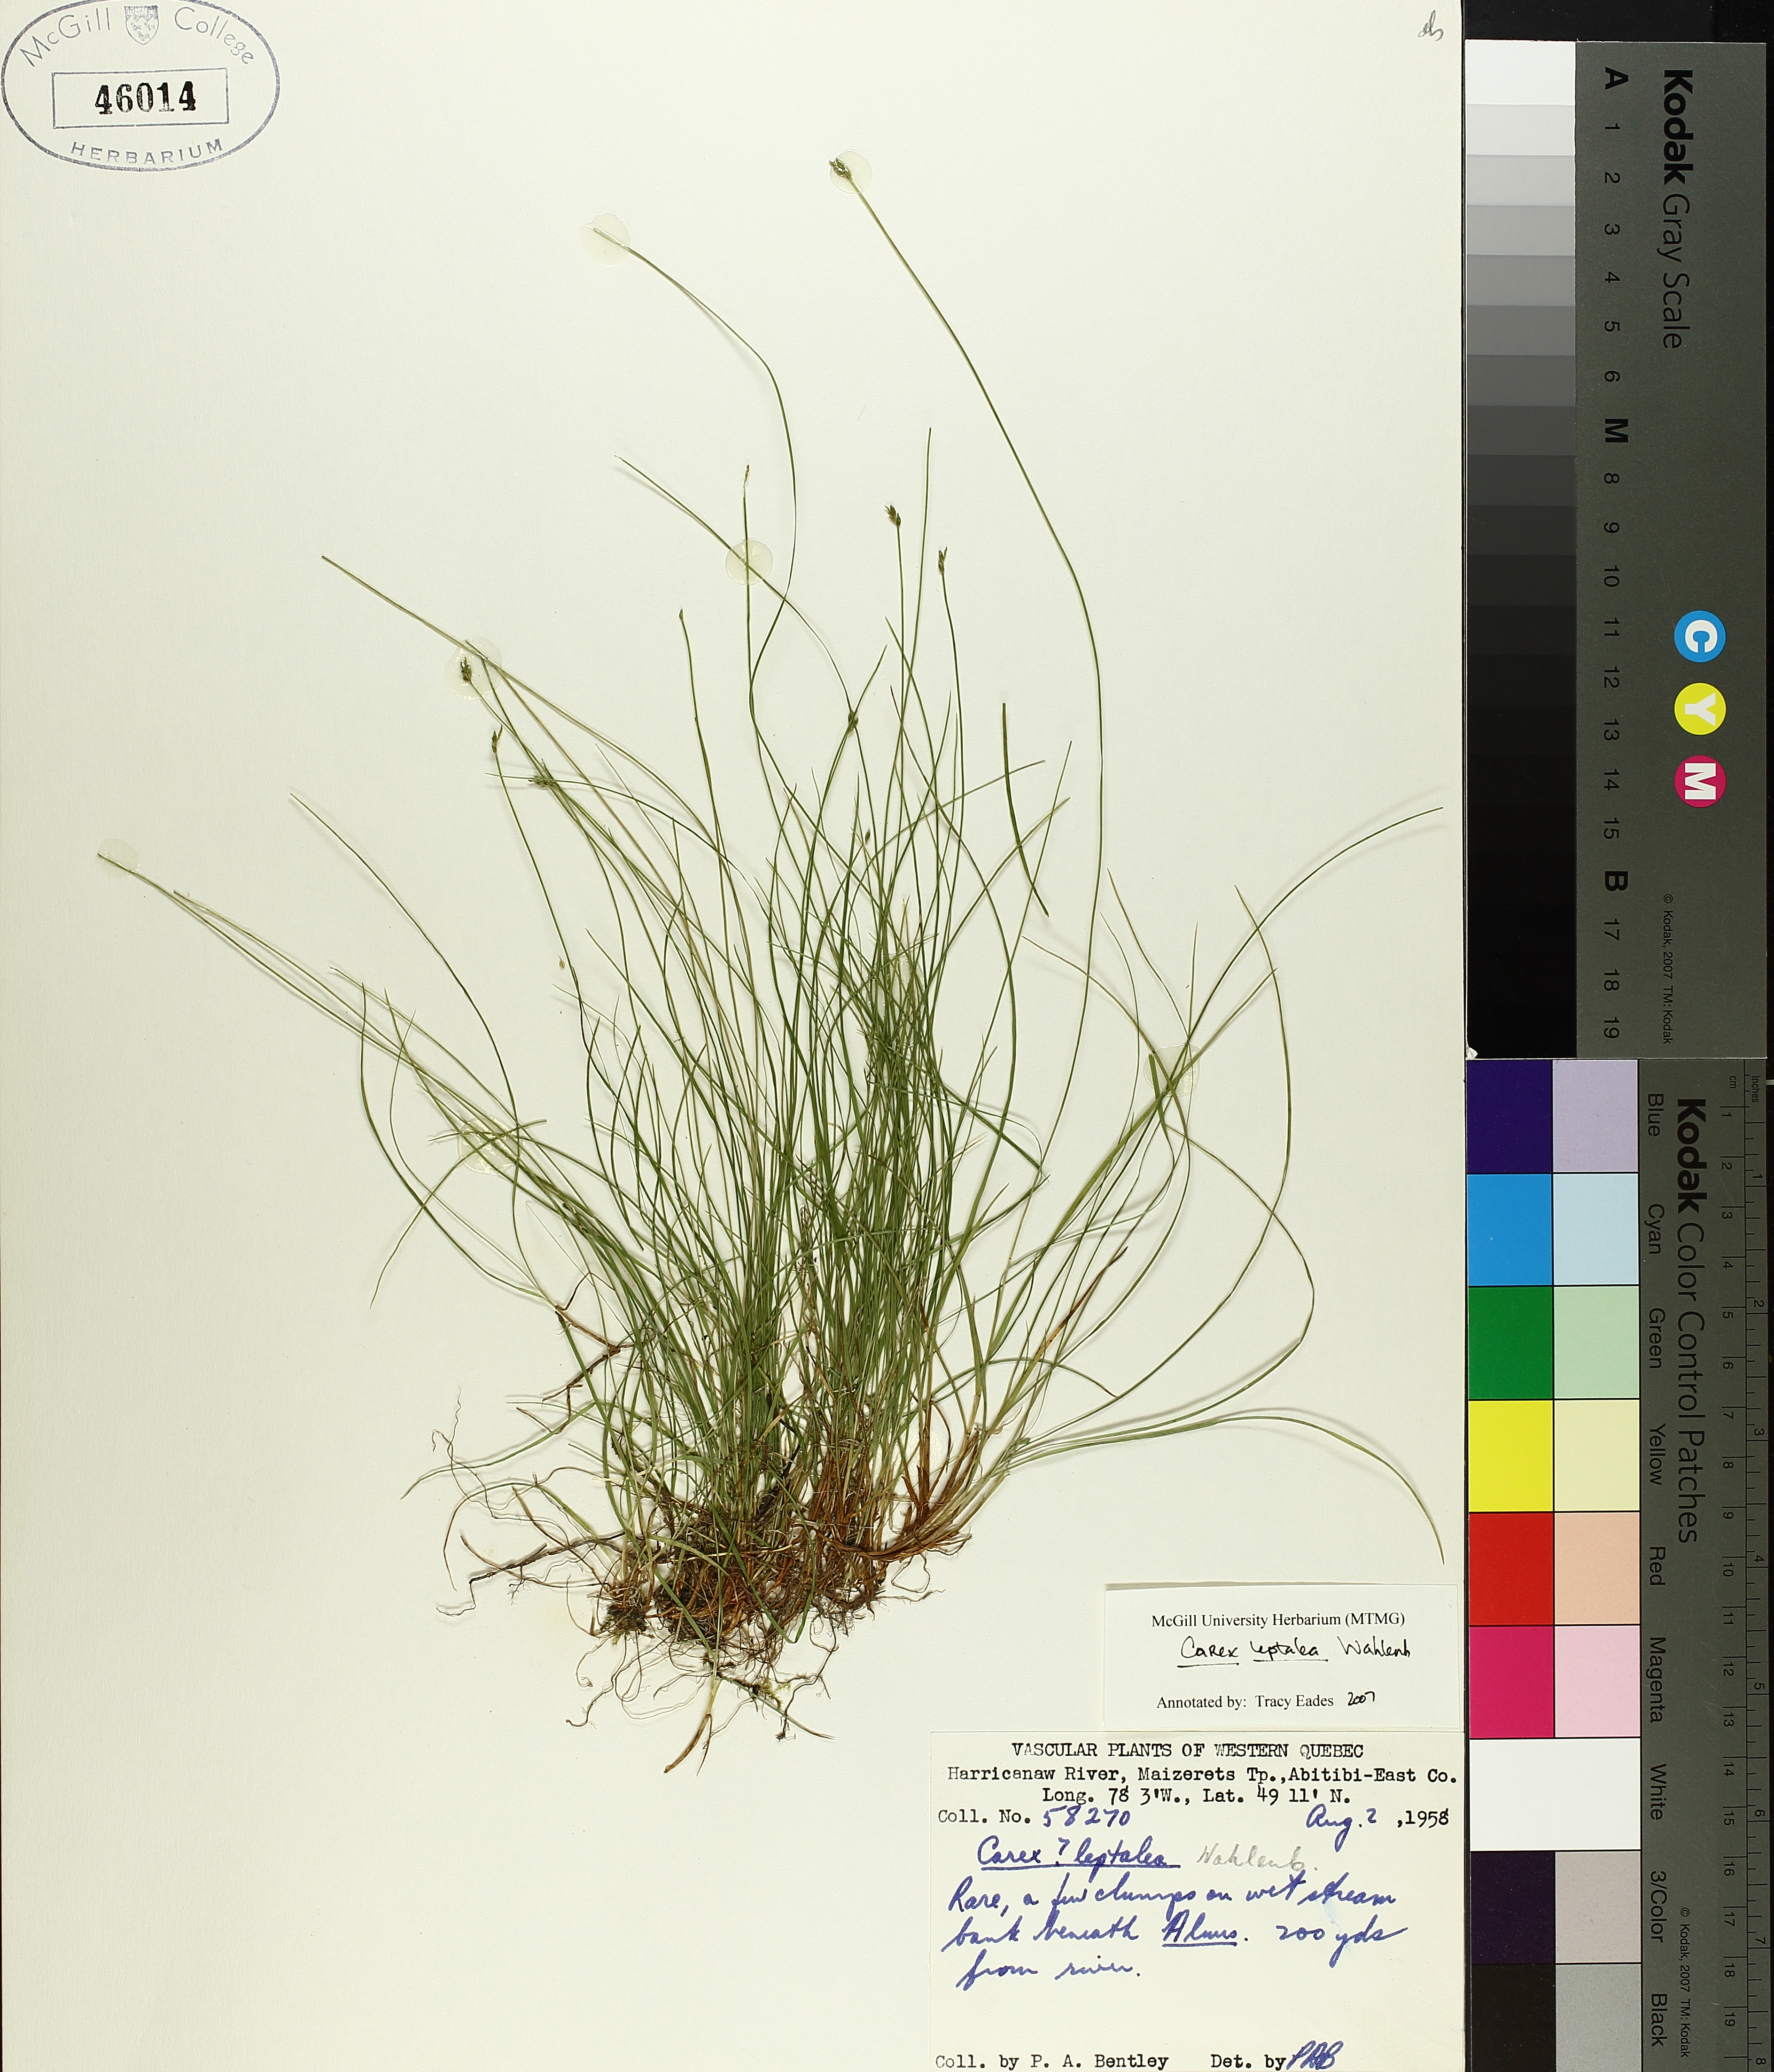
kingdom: Plantae
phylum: Tracheophyta
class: Liliopsida
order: Poales
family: Cyperaceae
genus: Carex
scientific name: Carex leptalea
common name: Bristly-stalked sedge
